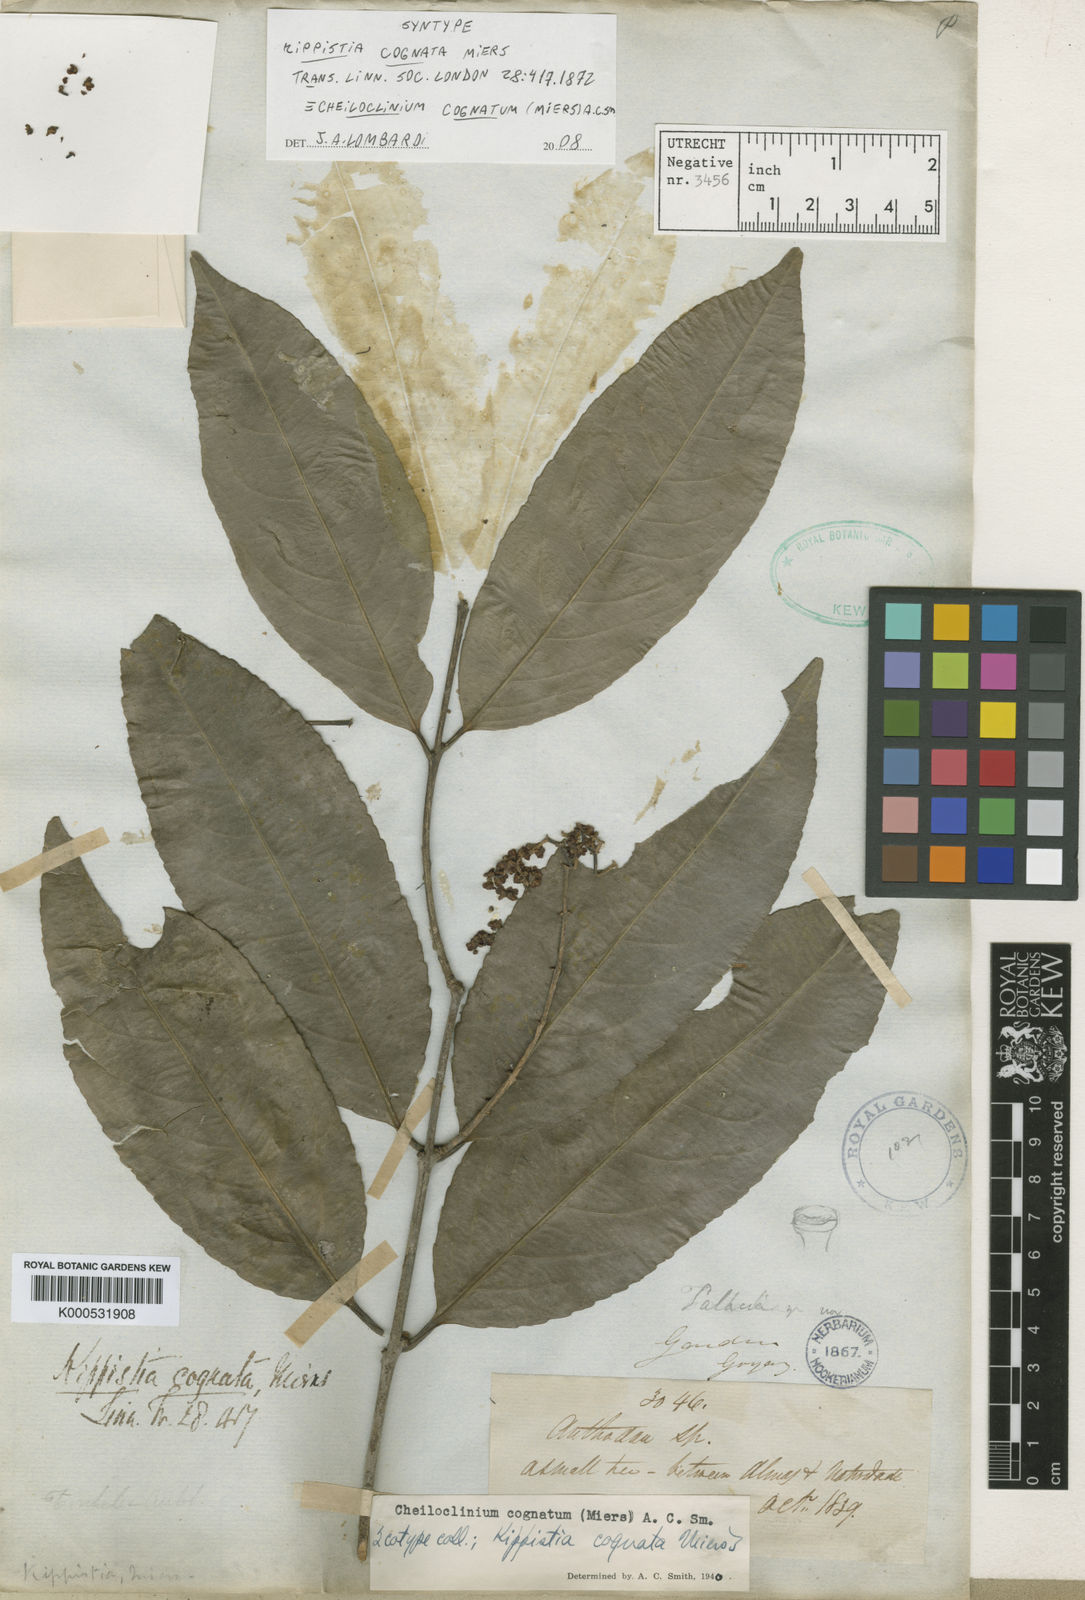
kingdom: Plantae
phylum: Tracheophyta
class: Magnoliopsida
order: Celastrales
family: Celastraceae
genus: Cheiloclinium
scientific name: Cheiloclinium cognatum
